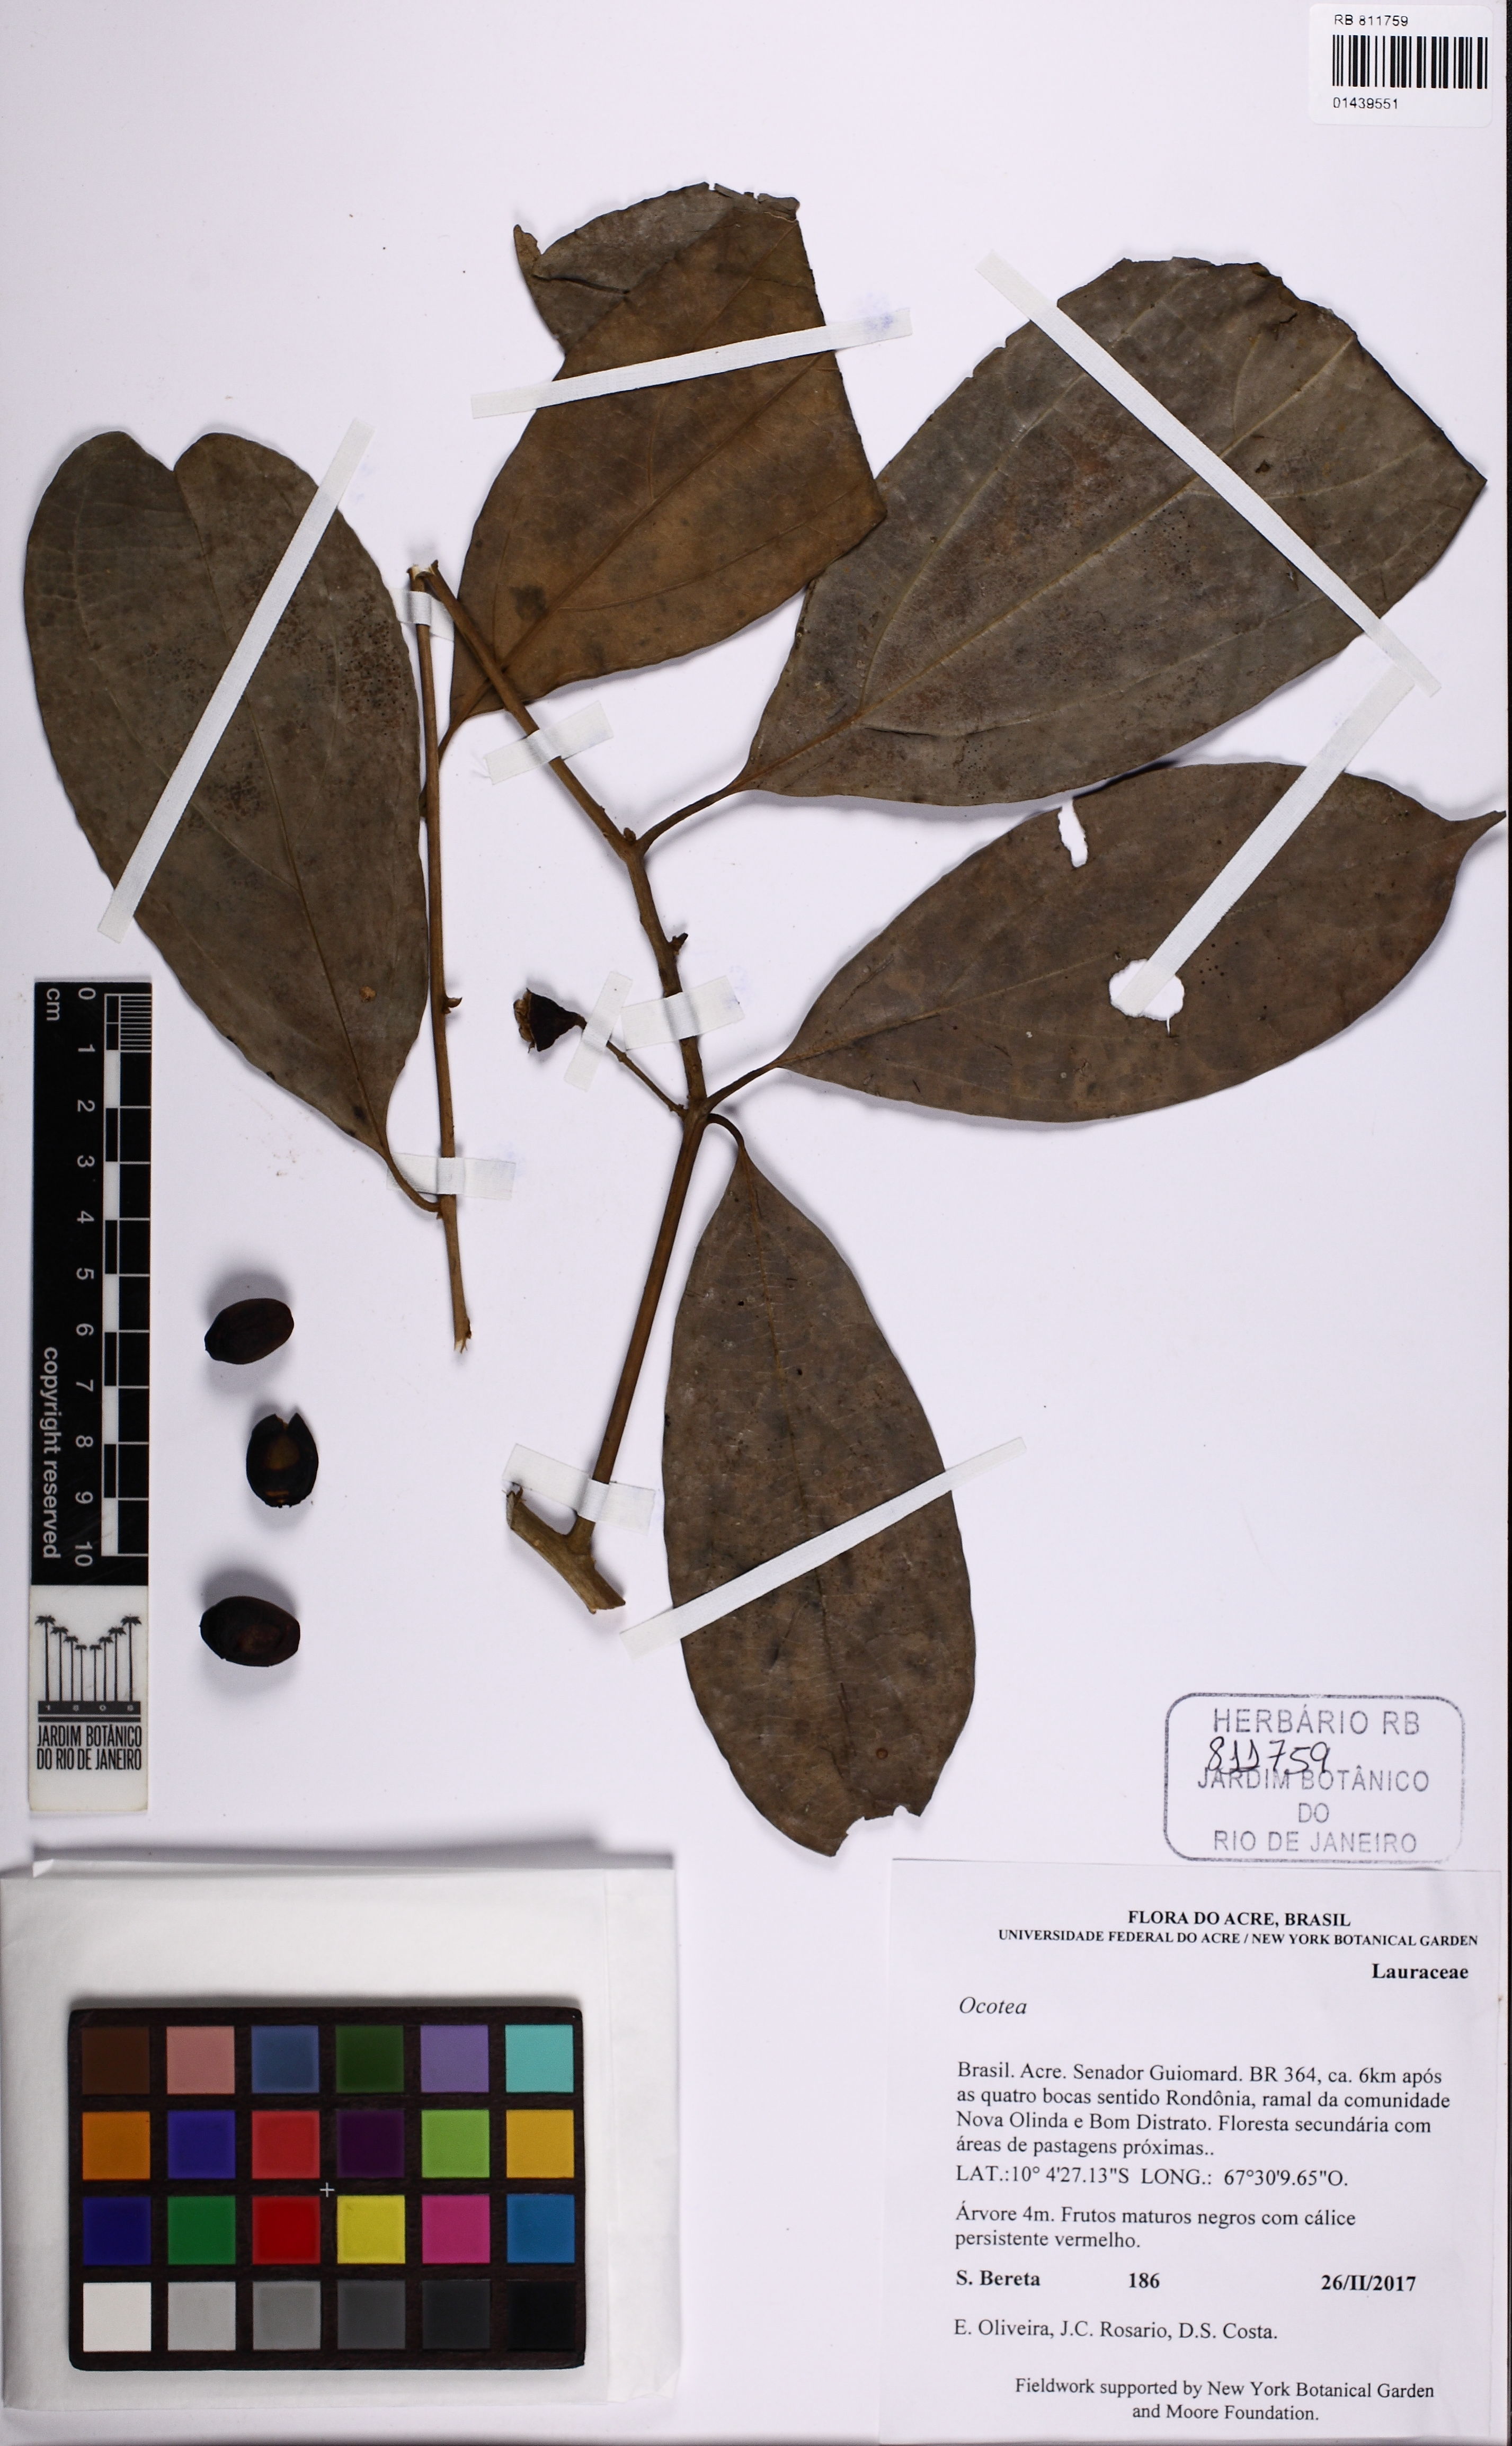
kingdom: Plantae
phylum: Tracheophyta
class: Magnoliopsida
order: Laurales
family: Lauraceae
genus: Ocotea
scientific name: Ocotea
